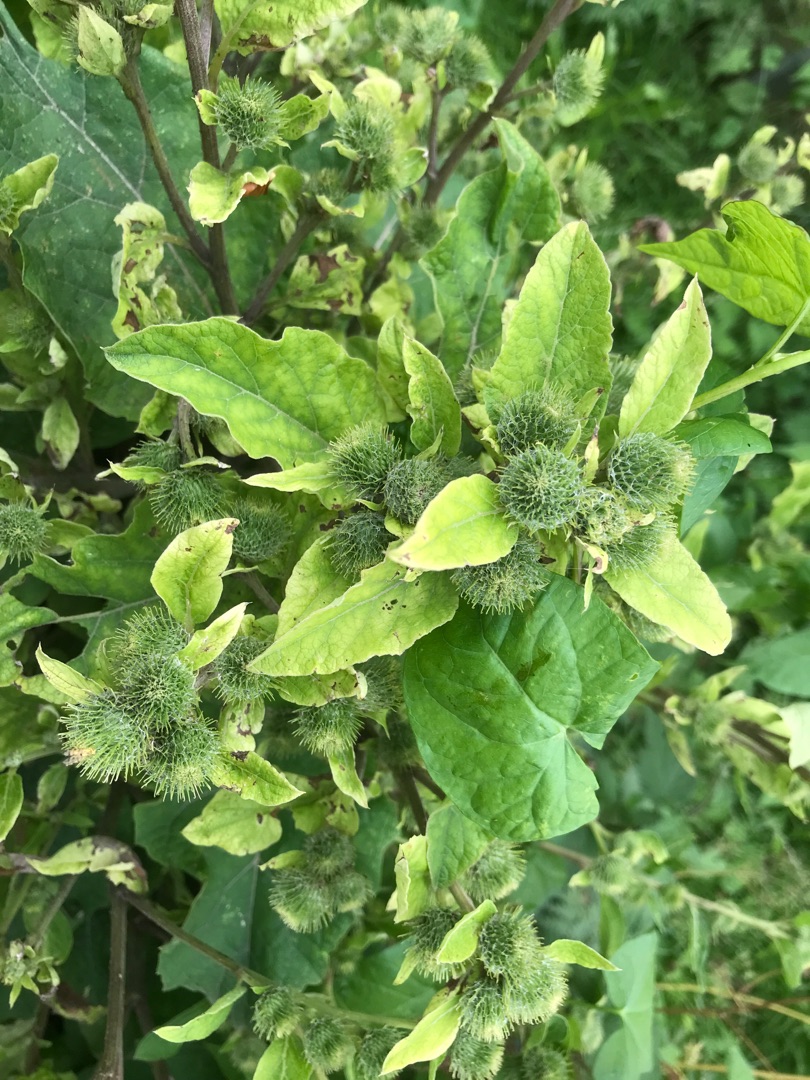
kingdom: Plantae
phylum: Tracheophyta
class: Magnoliopsida
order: Asterales
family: Asteraceae
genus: Arctium
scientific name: Arctium minus
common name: Liden burre
